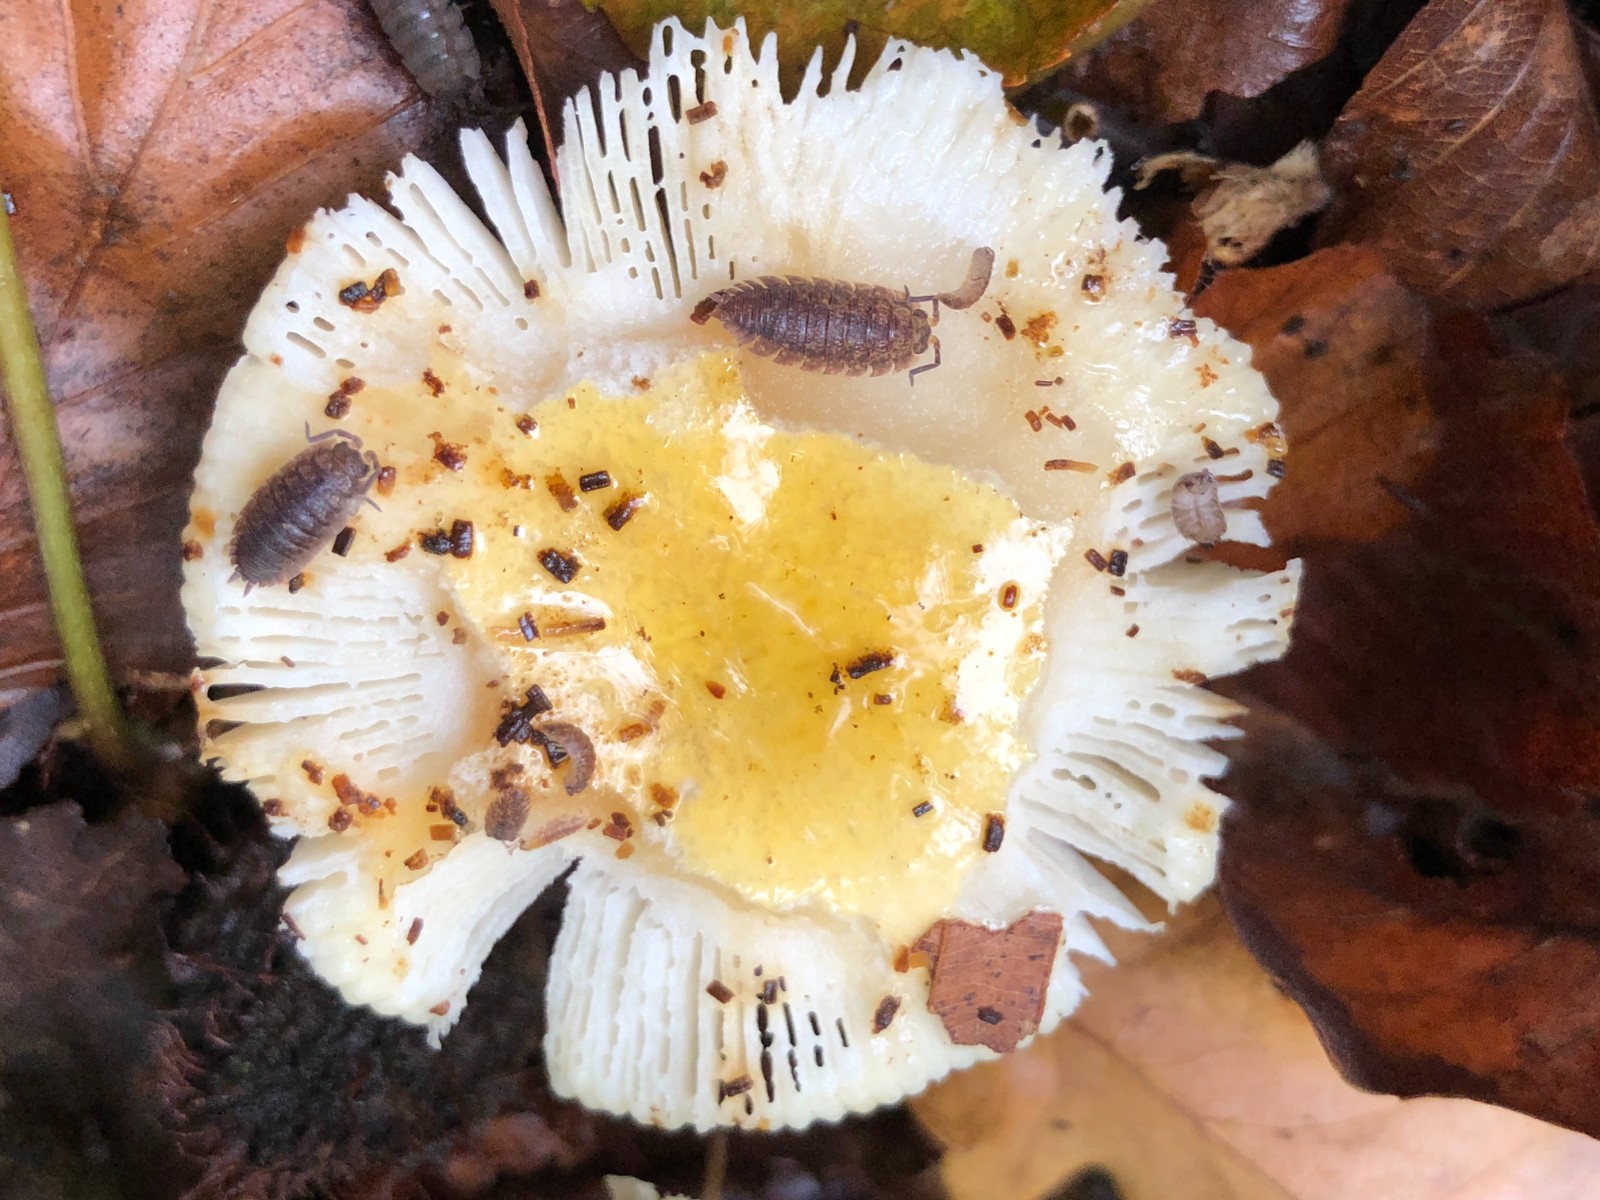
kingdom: Fungi
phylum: Basidiomycota
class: Agaricomycetes
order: Russulales
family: Russulaceae
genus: Russula
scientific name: Russula solaris
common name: sol-skørhat
